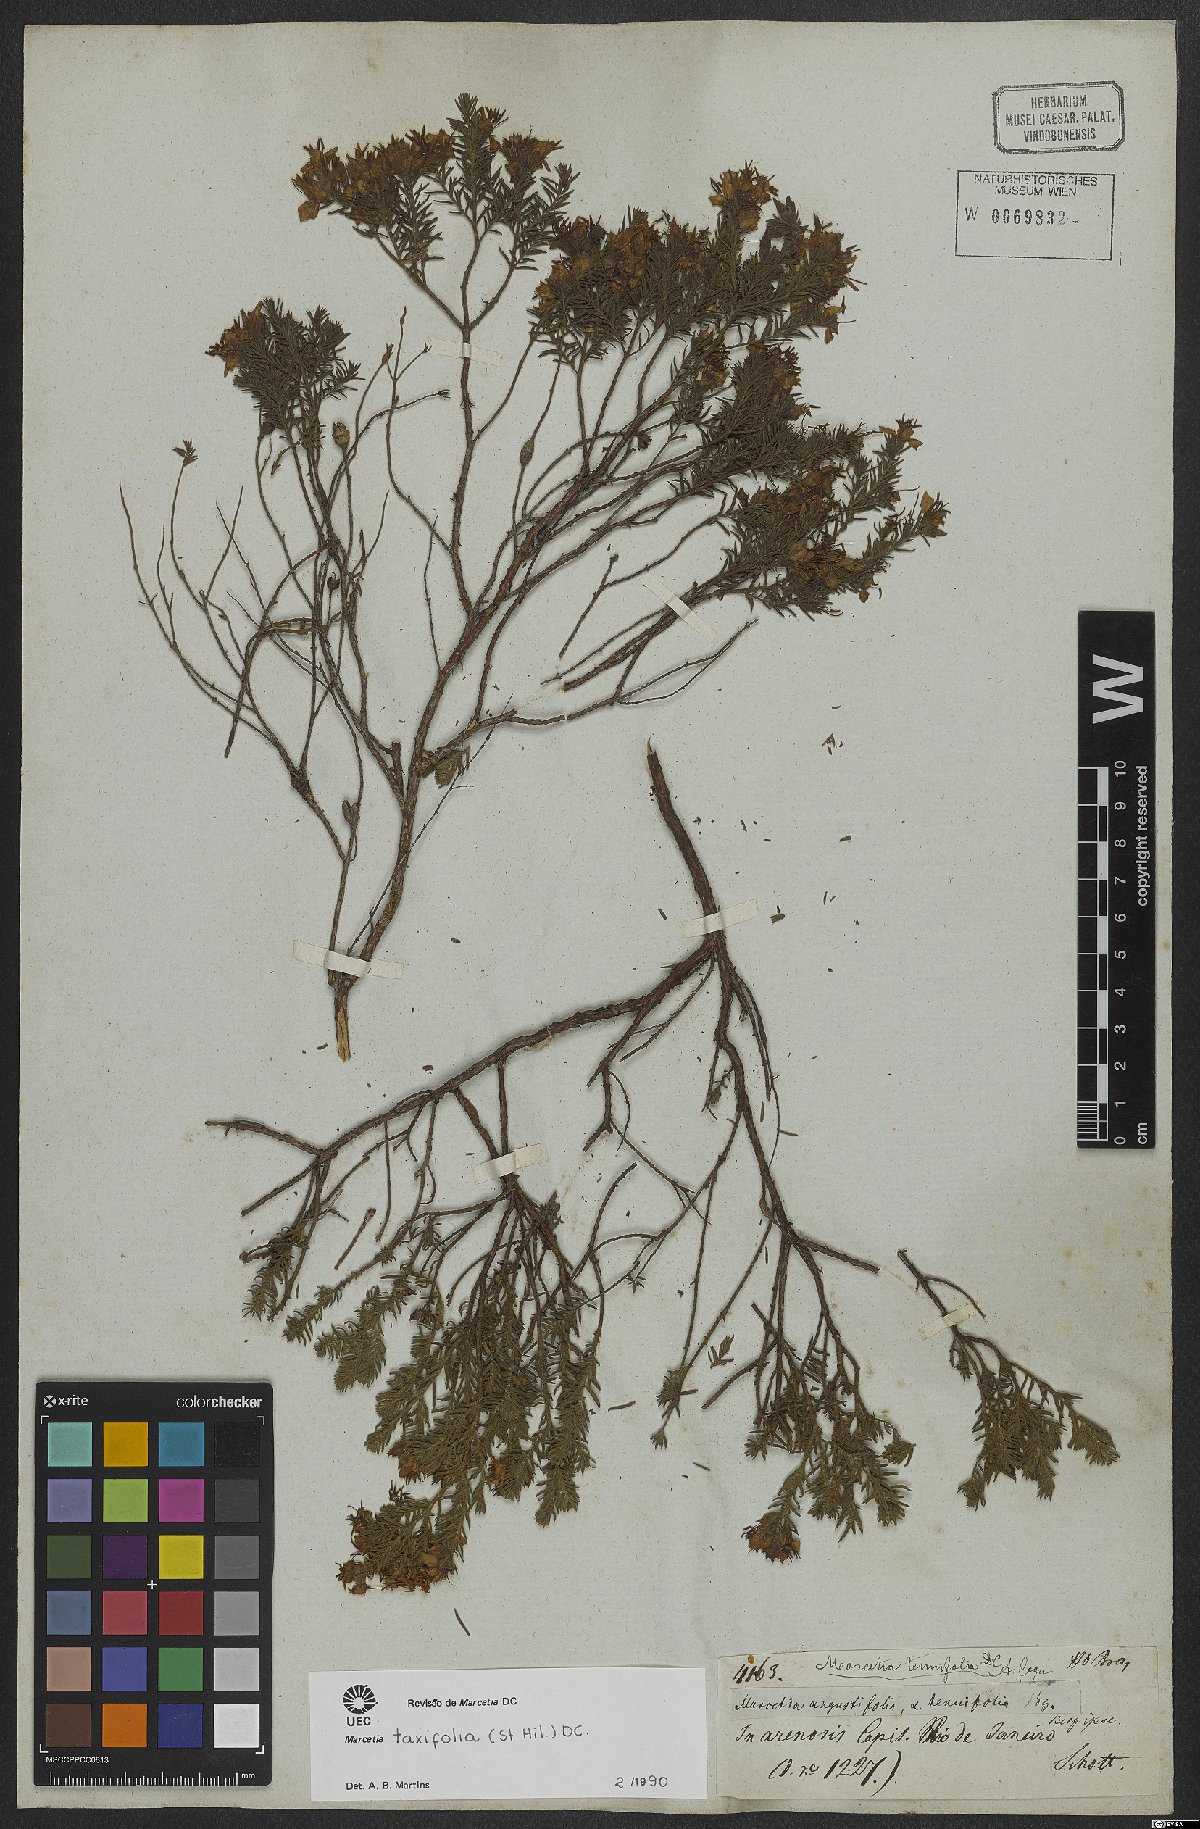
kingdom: Plantae
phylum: Tracheophyta
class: Magnoliopsida
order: Myrtales
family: Melastomataceae
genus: Marcetia
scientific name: Marcetia taxifolia
